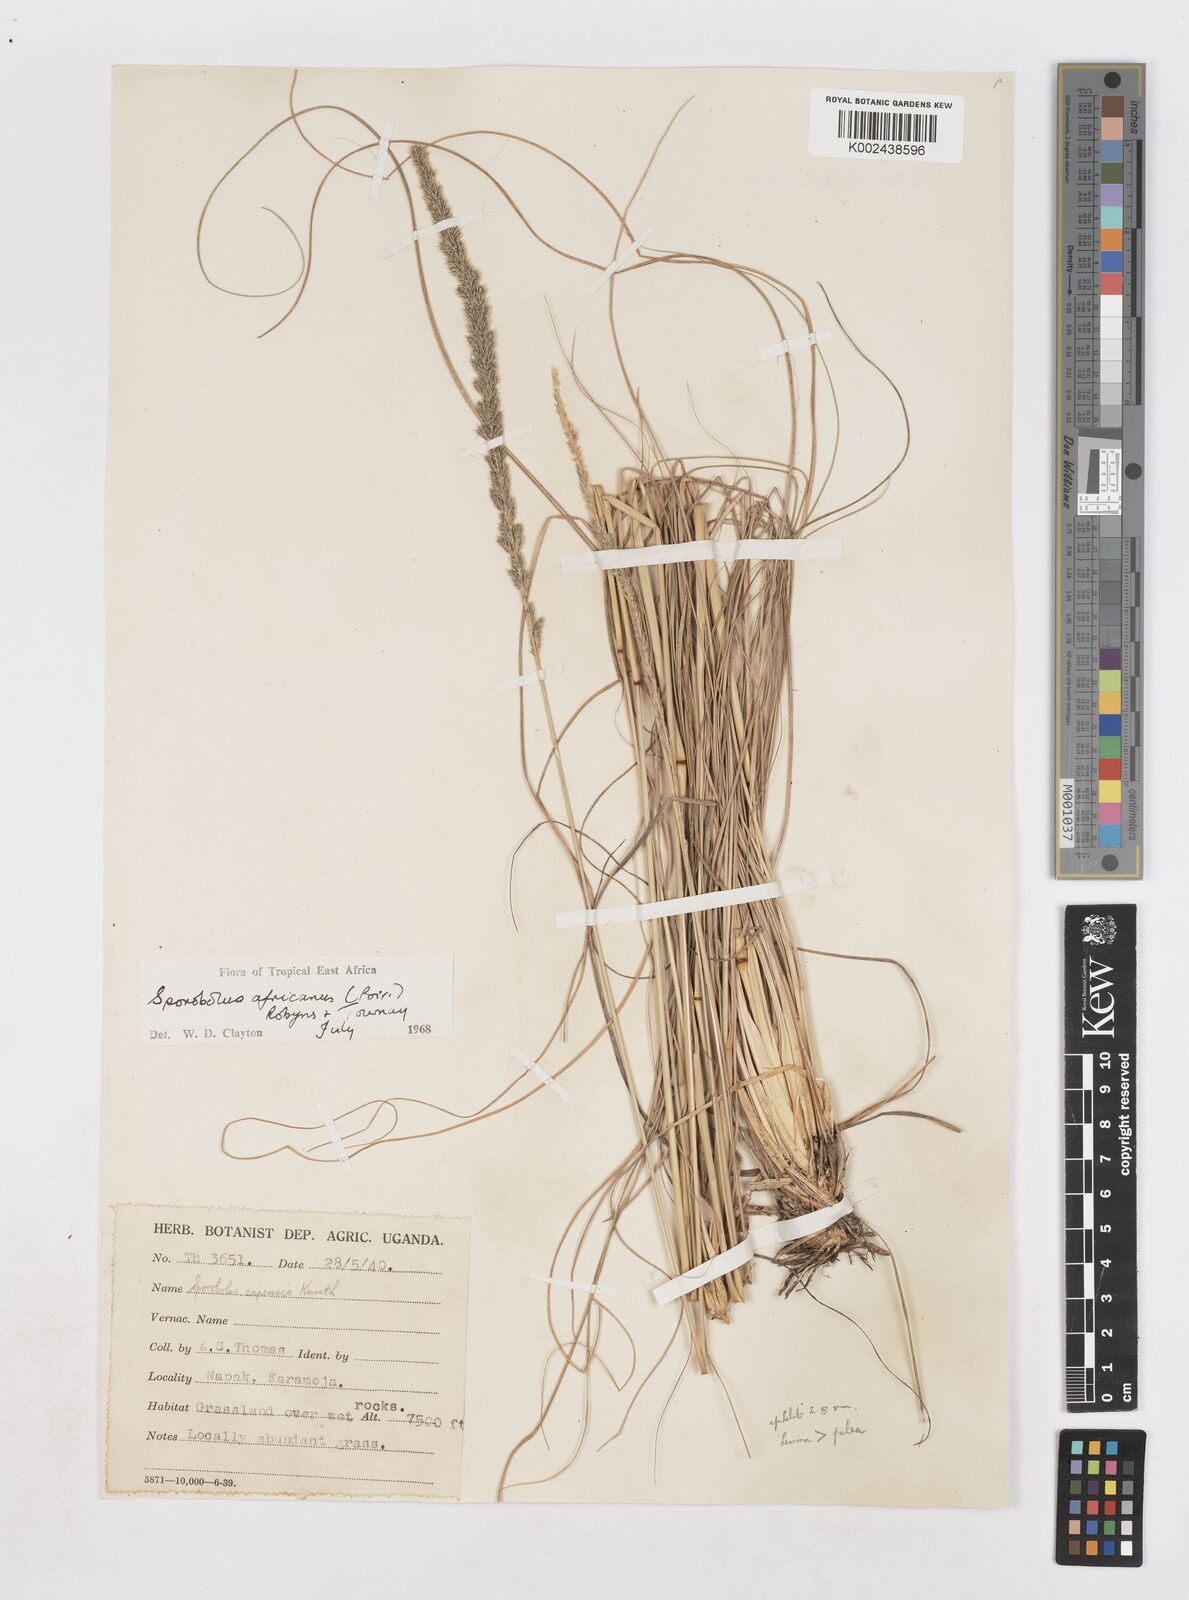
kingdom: Plantae
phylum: Tracheophyta
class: Liliopsida
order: Poales
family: Poaceae
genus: Sporobolus
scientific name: Sporobolus africanus
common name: African dropseed
